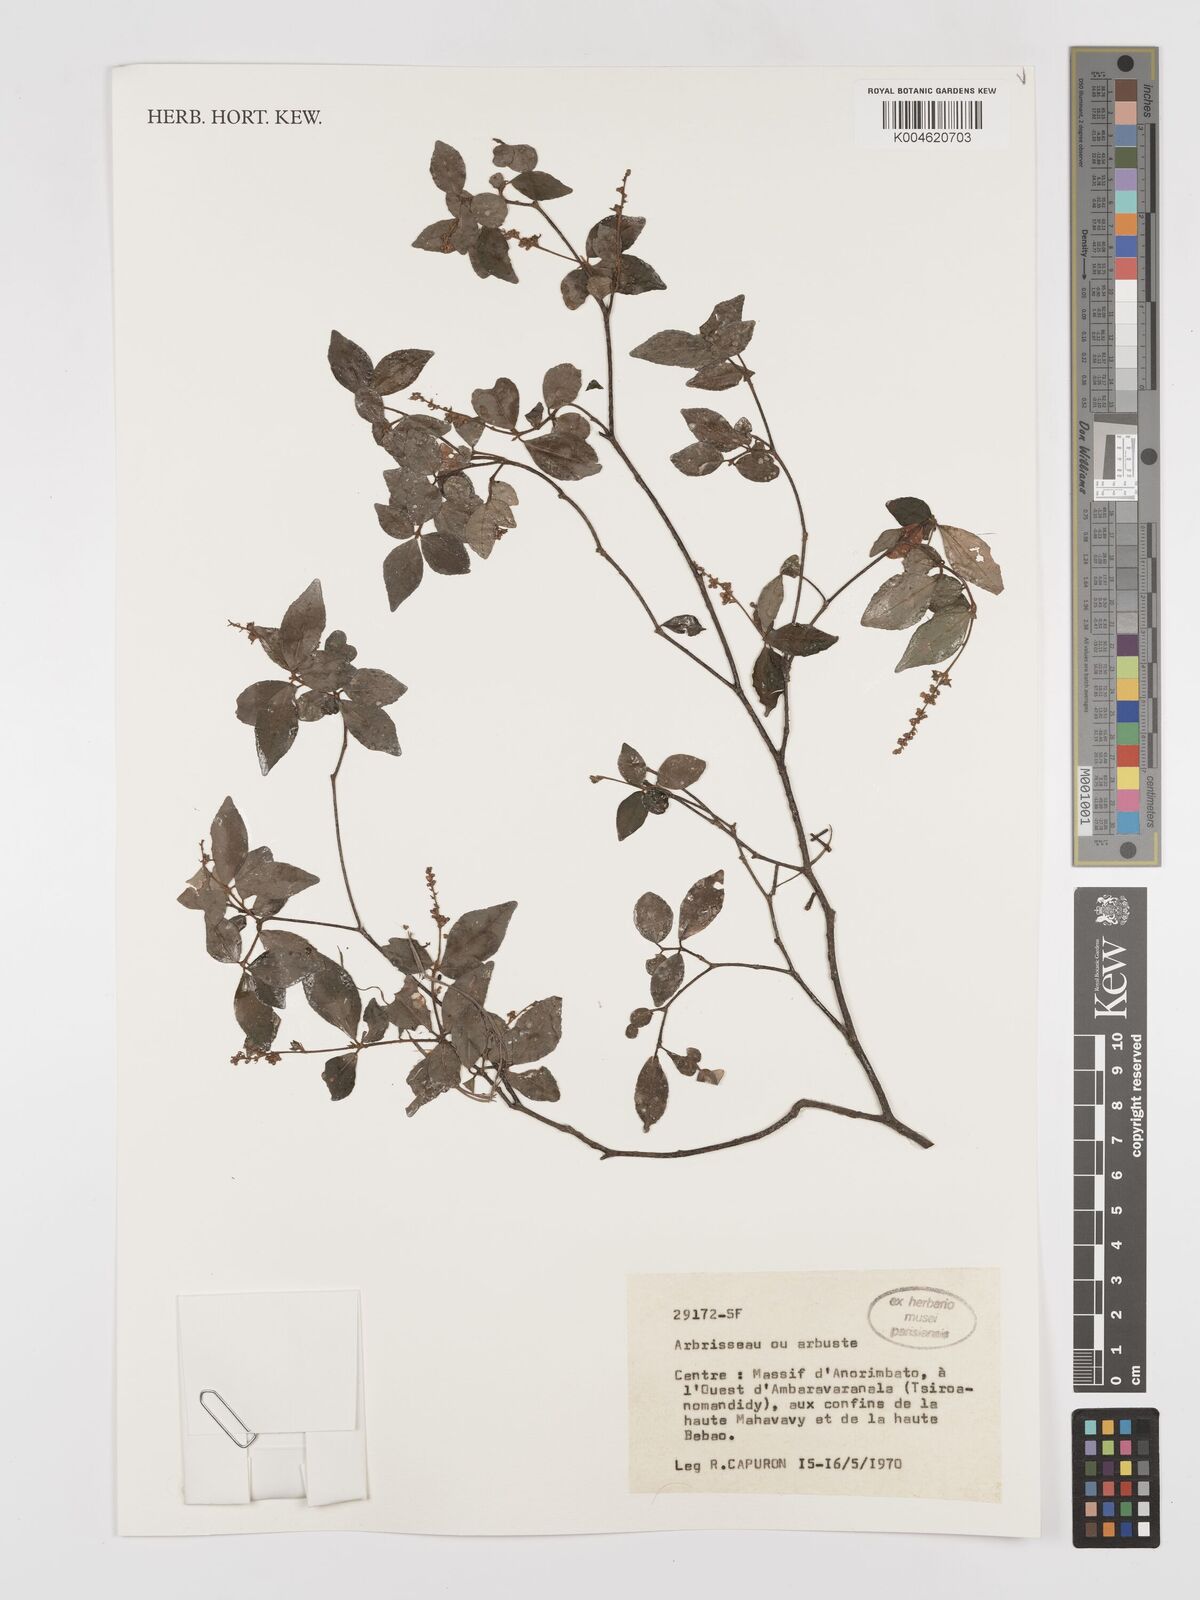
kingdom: Plantae
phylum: Tracheophyta
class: Magnoliopsida
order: Malpighiales
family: Euphorbiaceae
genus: Croton
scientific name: Croton
